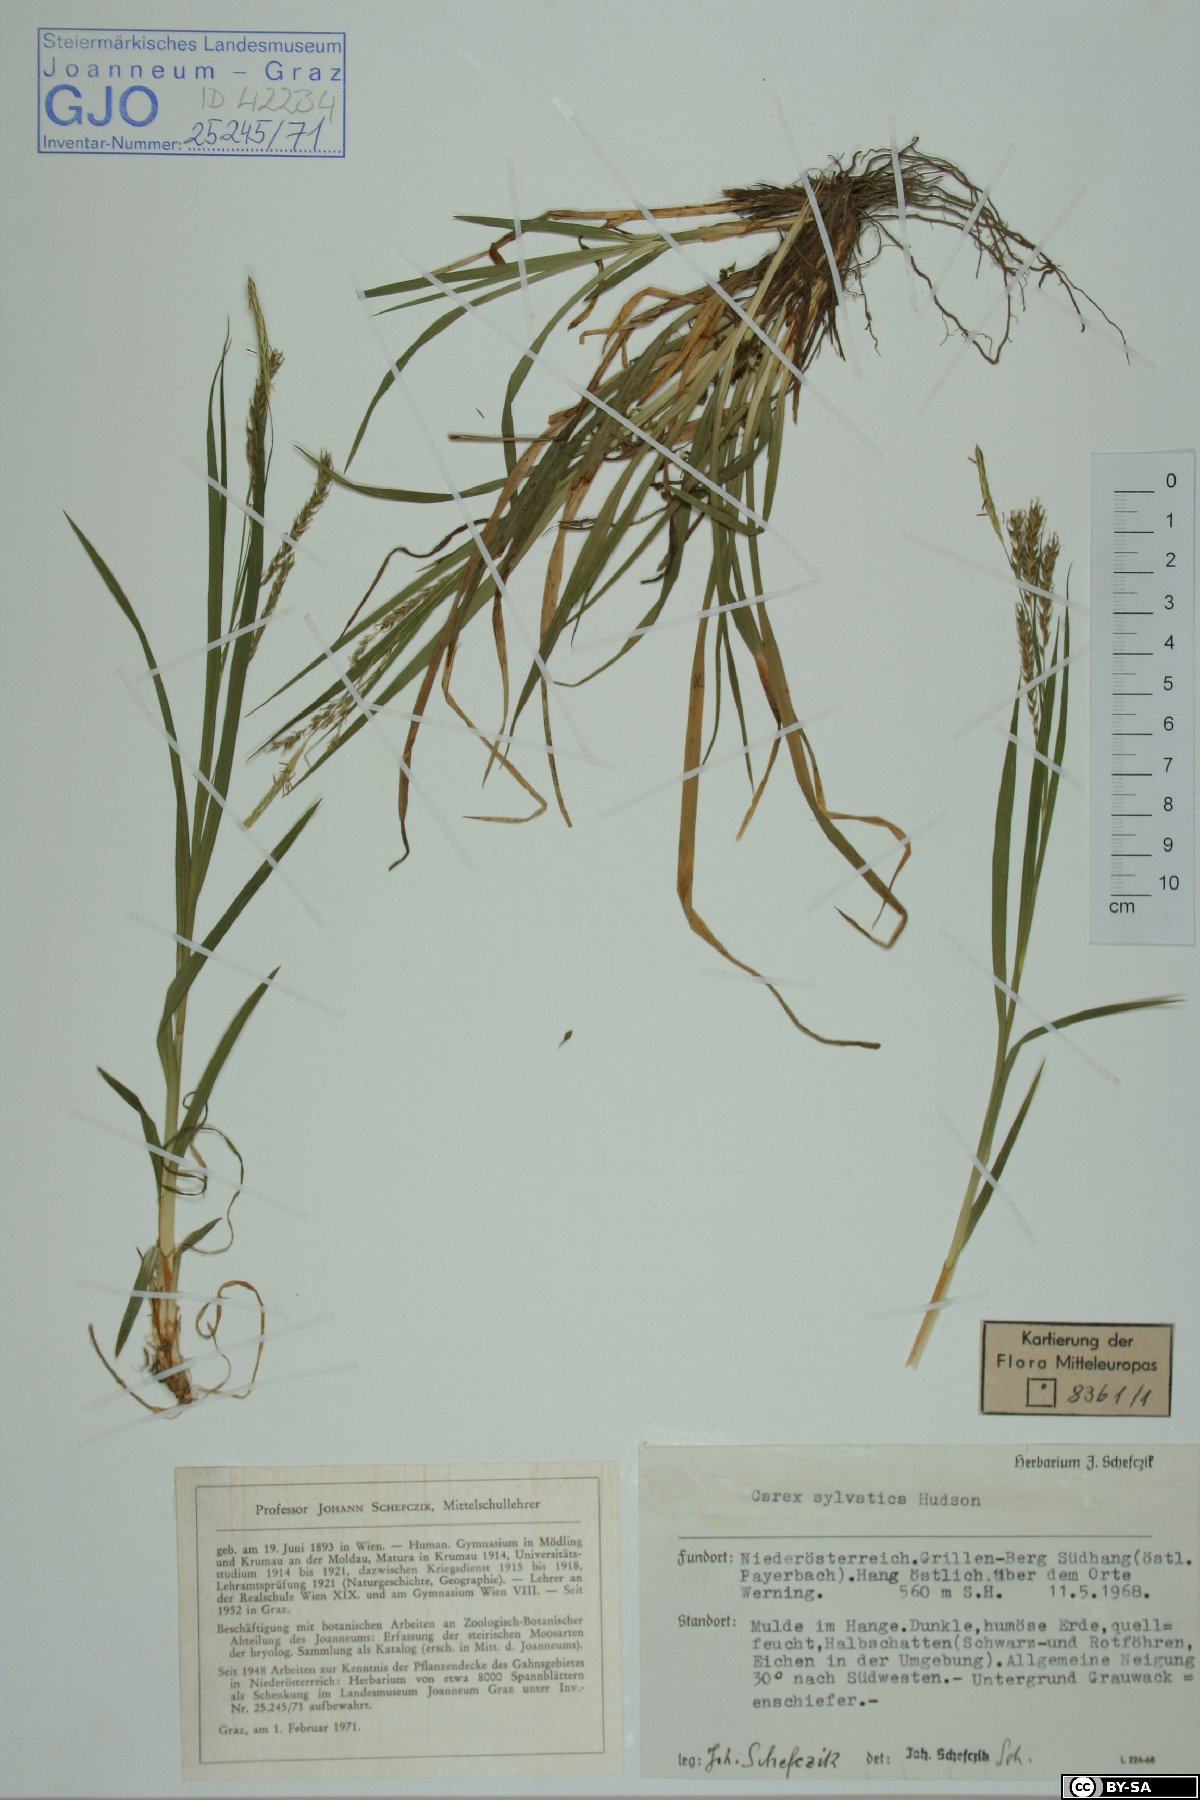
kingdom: Plantae
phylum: Tracheophyta
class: Liliopsida
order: Poales
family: Cyperaceae
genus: Carex
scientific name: Carex sylvatica
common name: Wood-sedge
